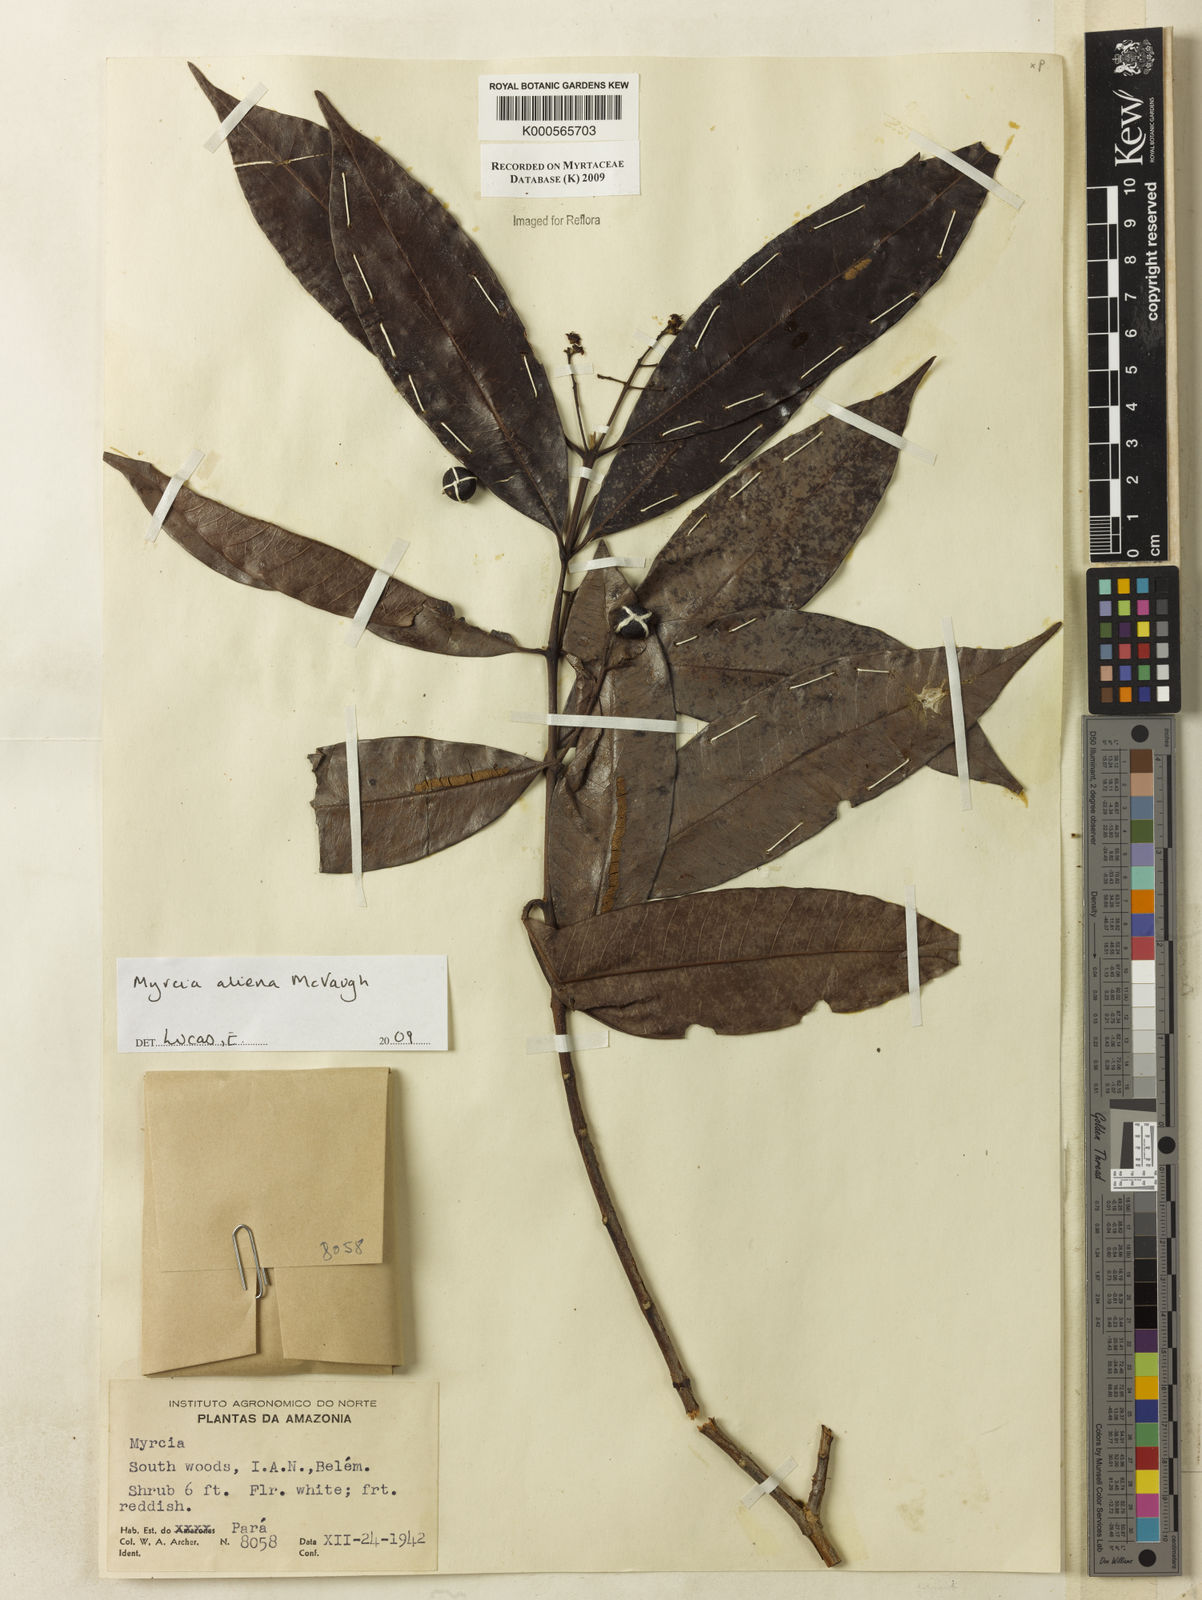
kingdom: Plantae
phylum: Tracheophyta
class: Magnoliopsida
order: Myrtales
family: Myrtaceae
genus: Myrcia
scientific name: Myrcia aliena
